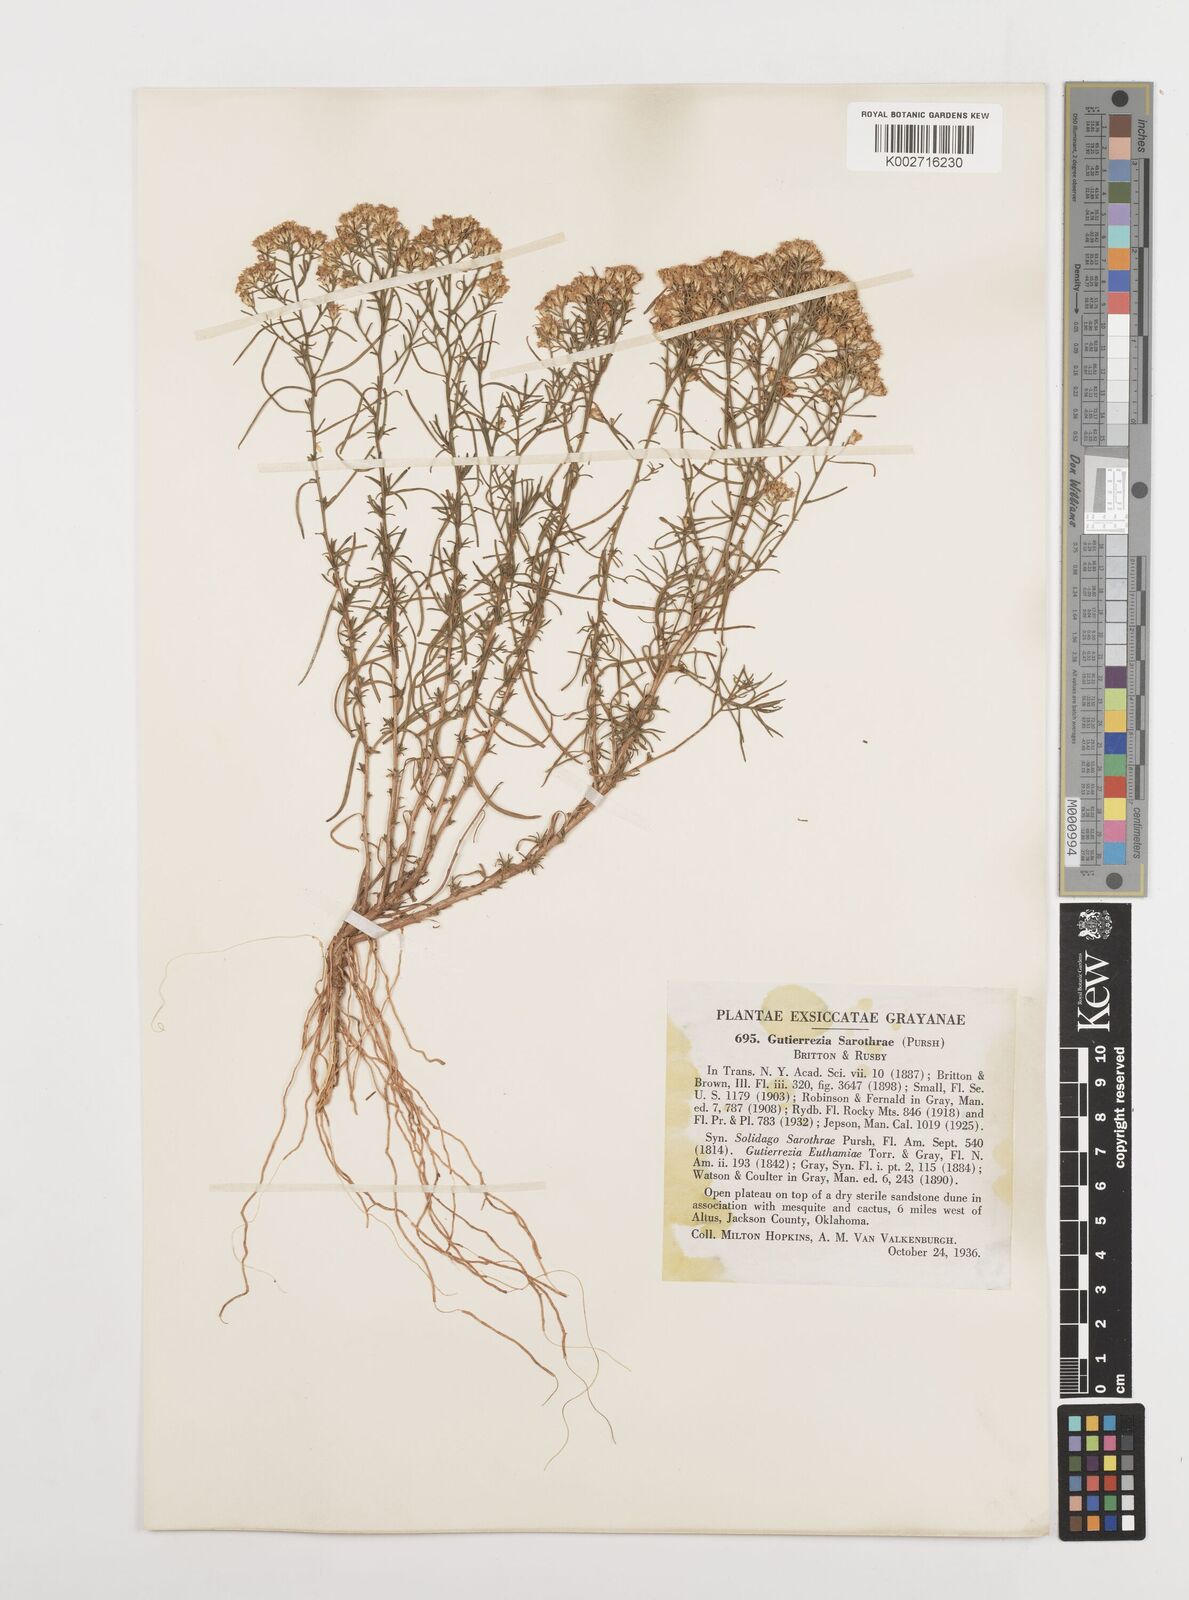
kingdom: Plantae
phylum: Tracheophyta
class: Magnoliopsida
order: Asterales
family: Asteraceae
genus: Gutierrezia
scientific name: Gutierrezia sarothrae
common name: Broom snakeweed
